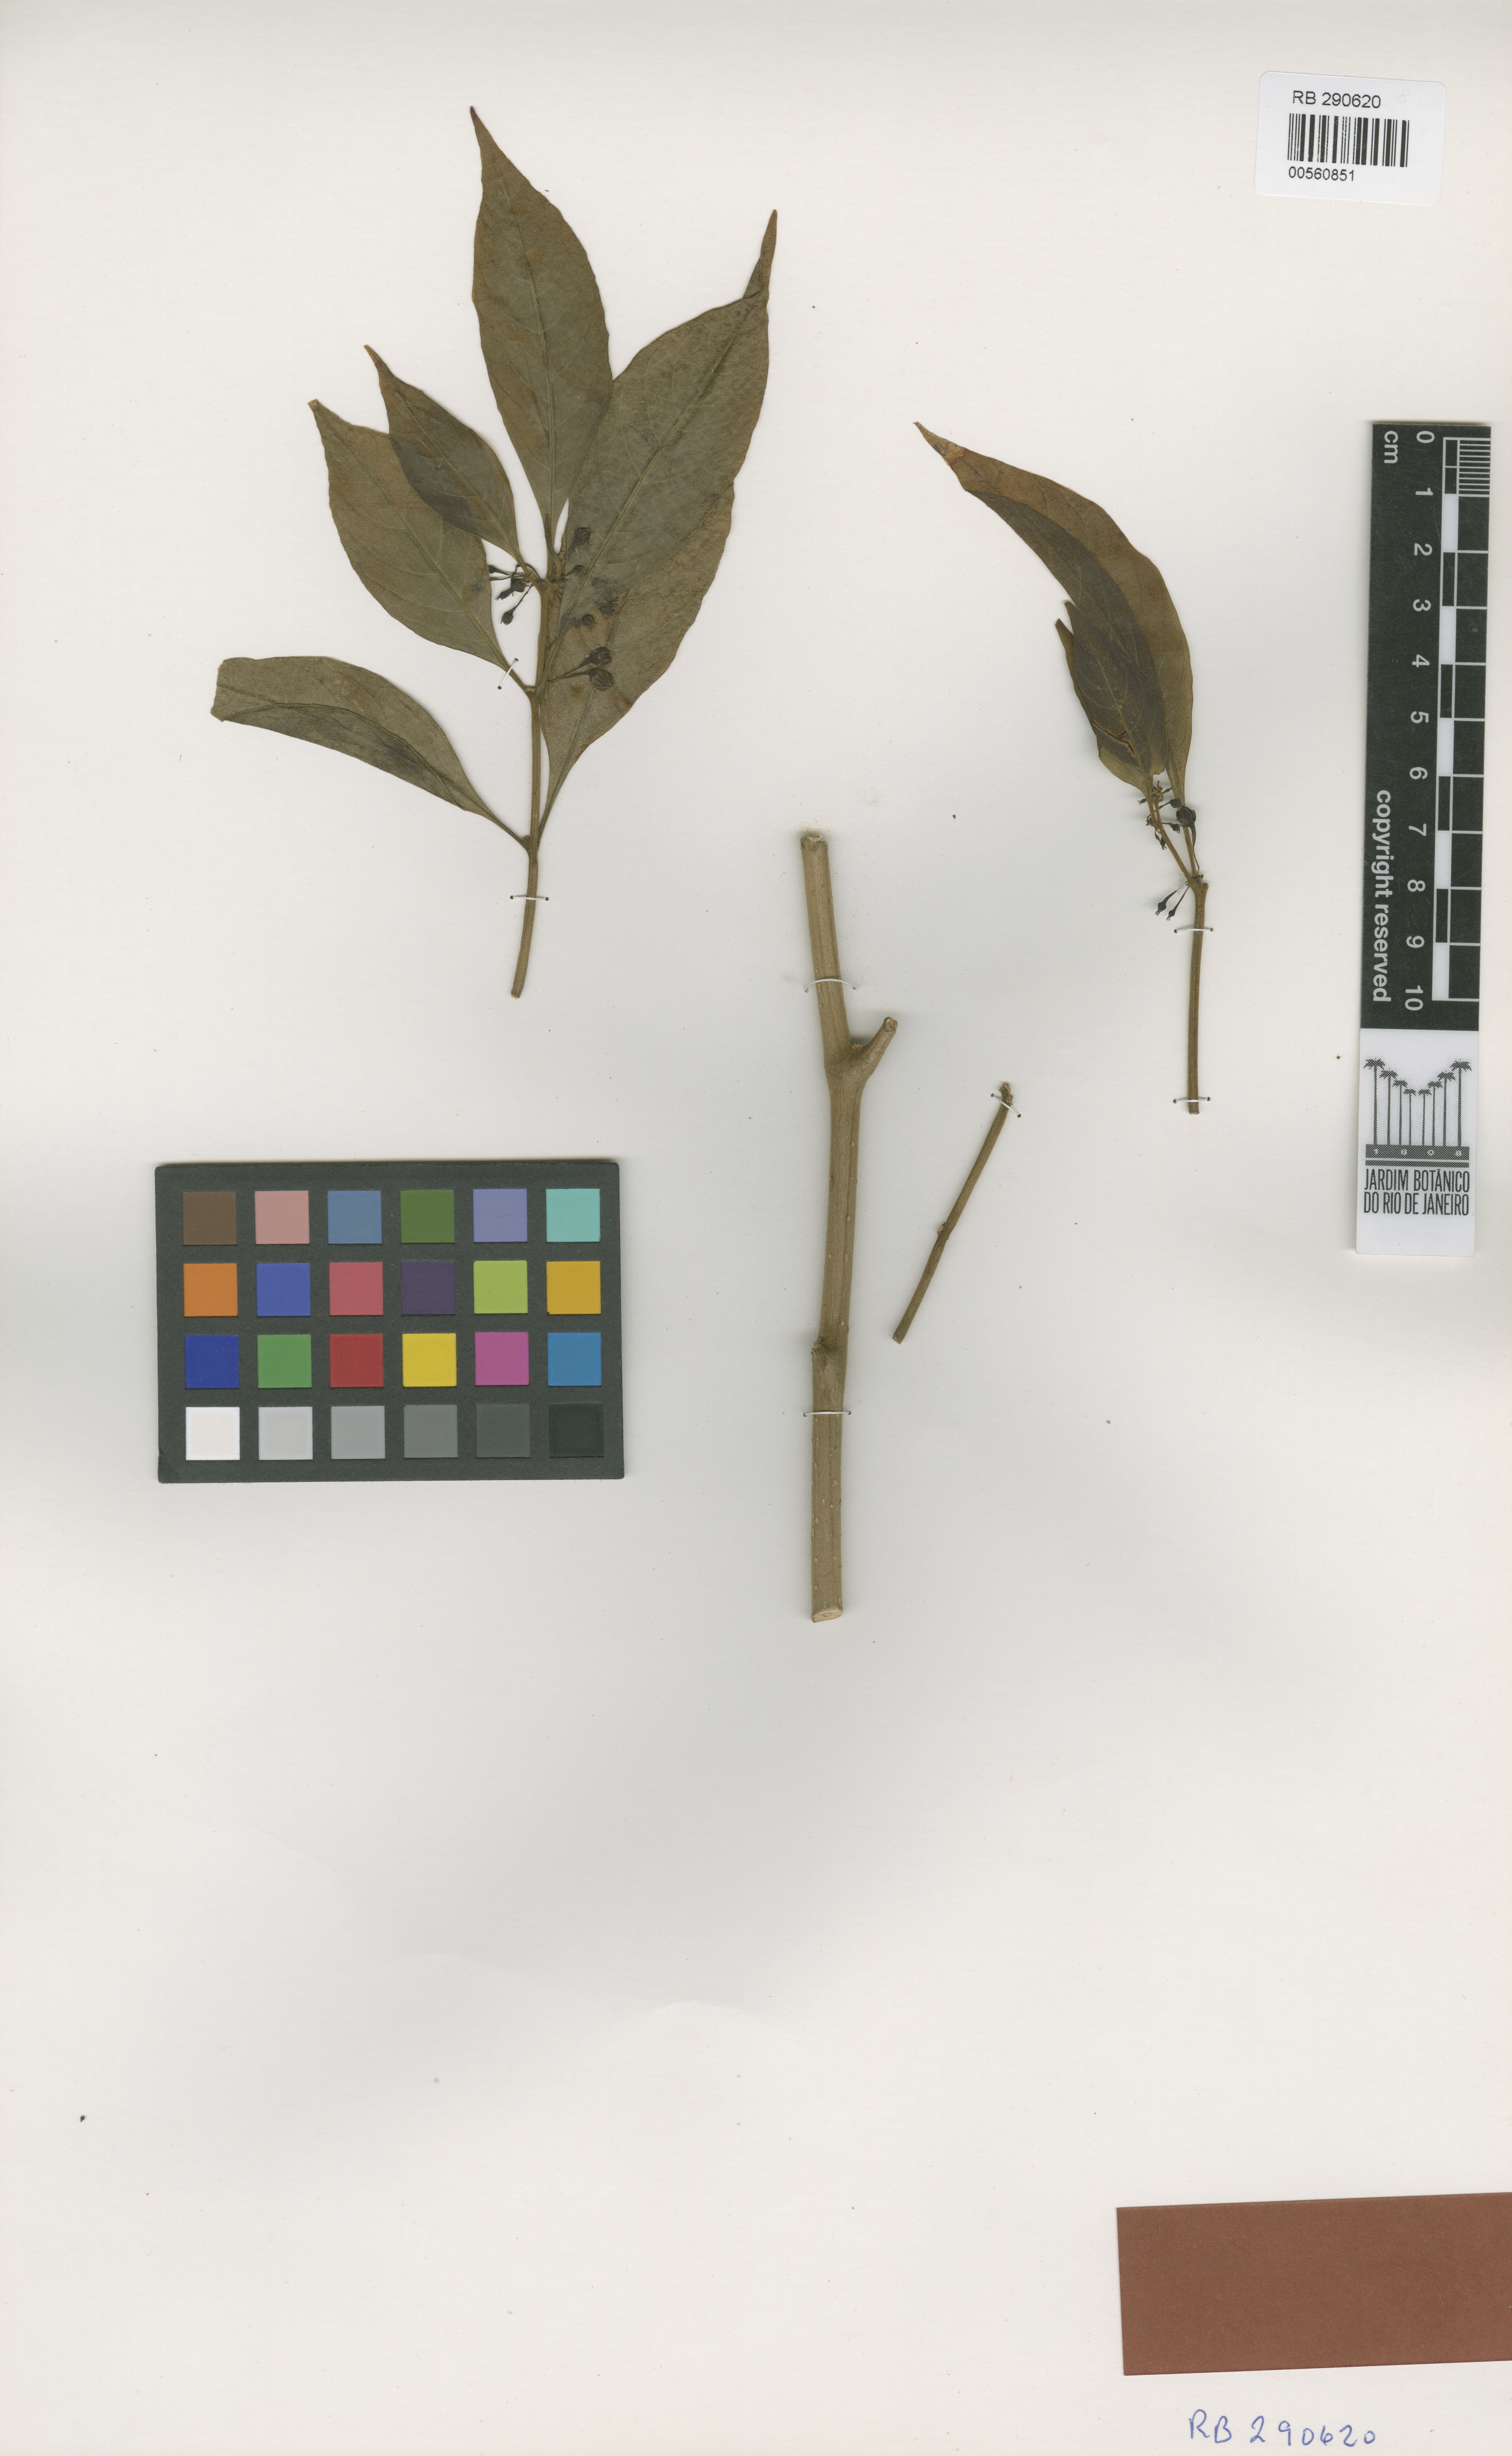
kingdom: Plantae
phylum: Tracheophyta
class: Magnoliopsida
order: Solanales
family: Solanaceae
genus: Athenaea
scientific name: Athenaea fasciculata
